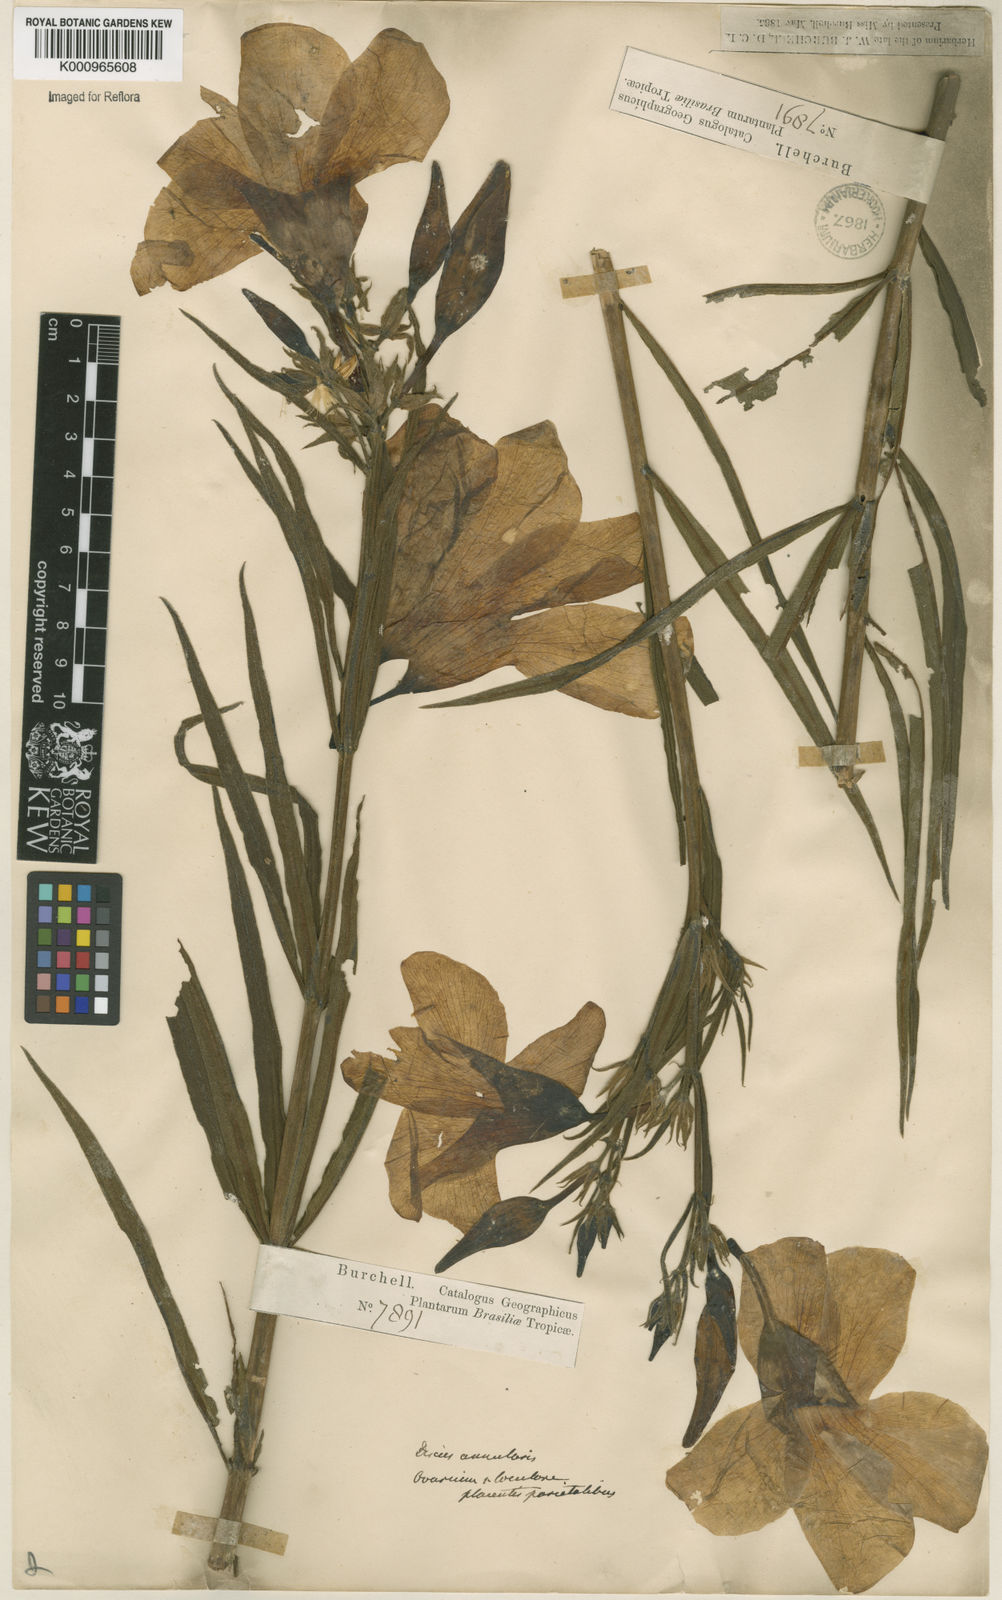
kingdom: Plantae
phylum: Tracheophyta
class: Magnoliopsida
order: Gentianales
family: Apocynaceae
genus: Allamanda
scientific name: Allamanda angustifolia
